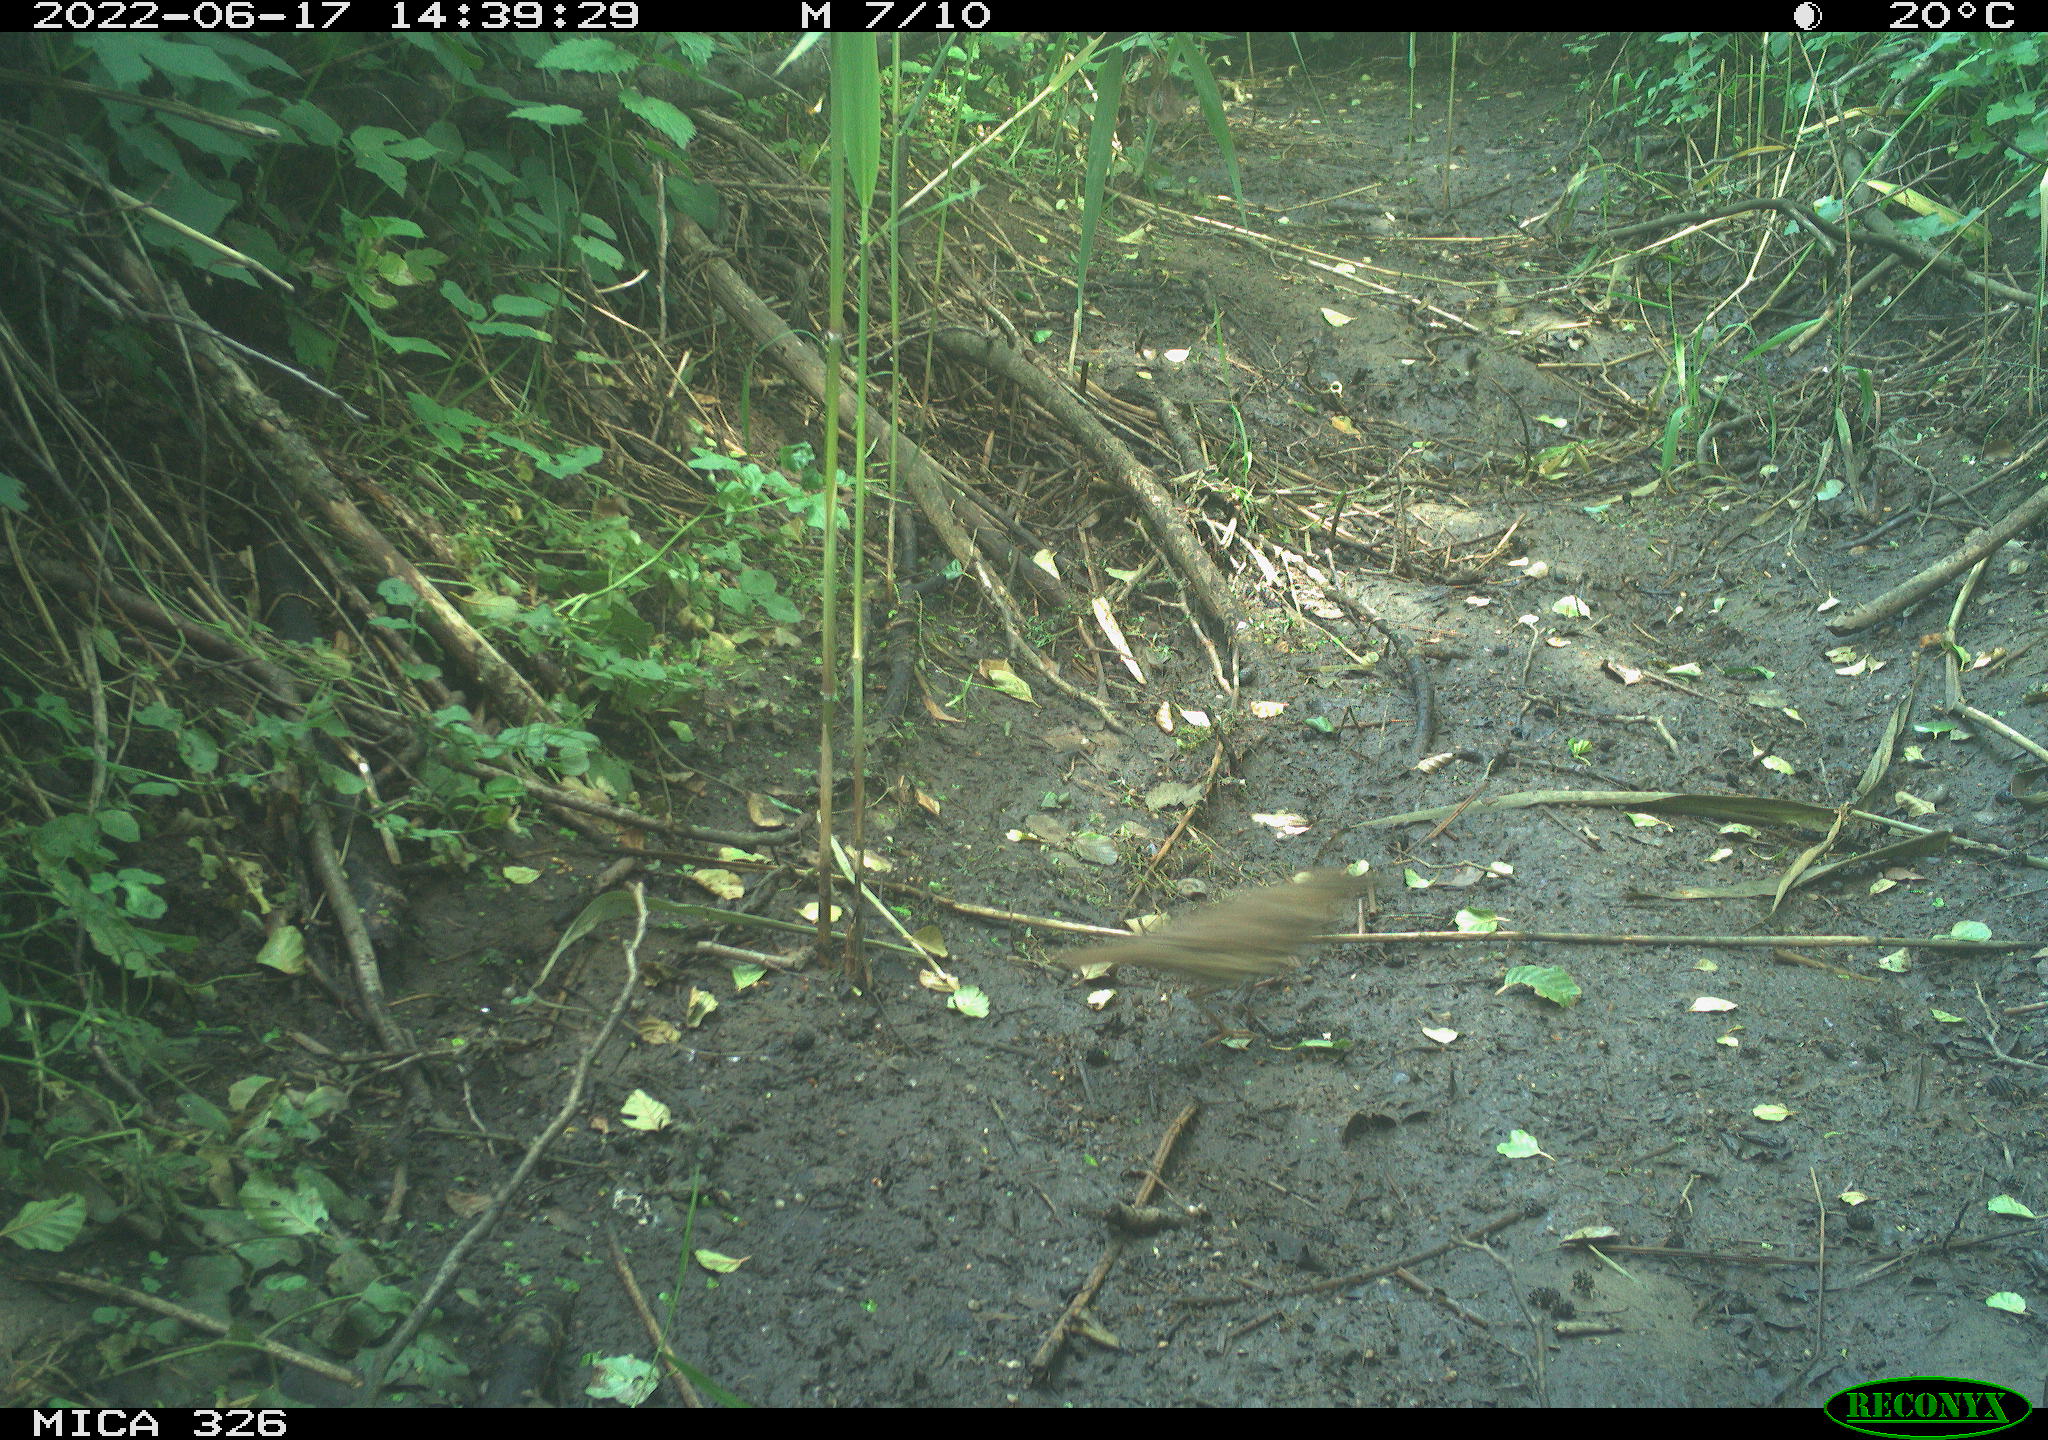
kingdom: Animalia
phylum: Chordata
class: Aves
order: Passeriformes
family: Turdidae
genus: Turdus
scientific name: Turdus philomelos
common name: Song thrush
